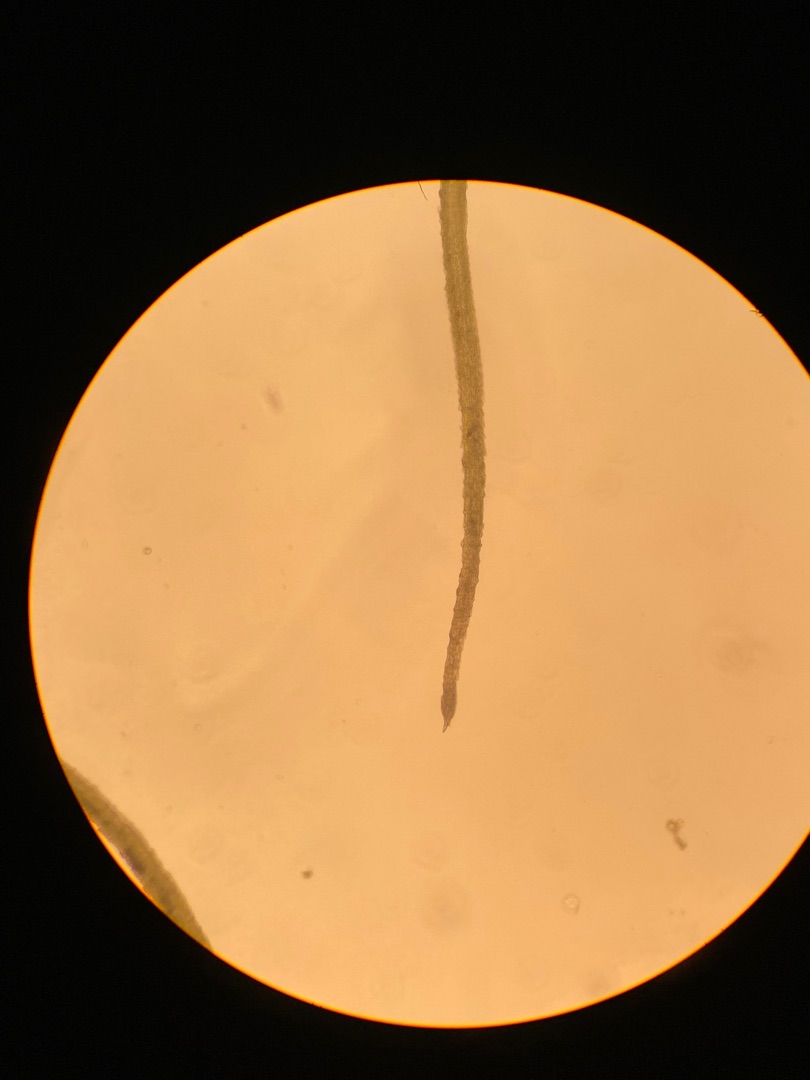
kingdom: Plantae
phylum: Bryophyta
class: Bryopsida
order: Dicranales
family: Ditrichaceae
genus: Trichodon
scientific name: Trichodon cylindricus
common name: Udspærret hårtand
